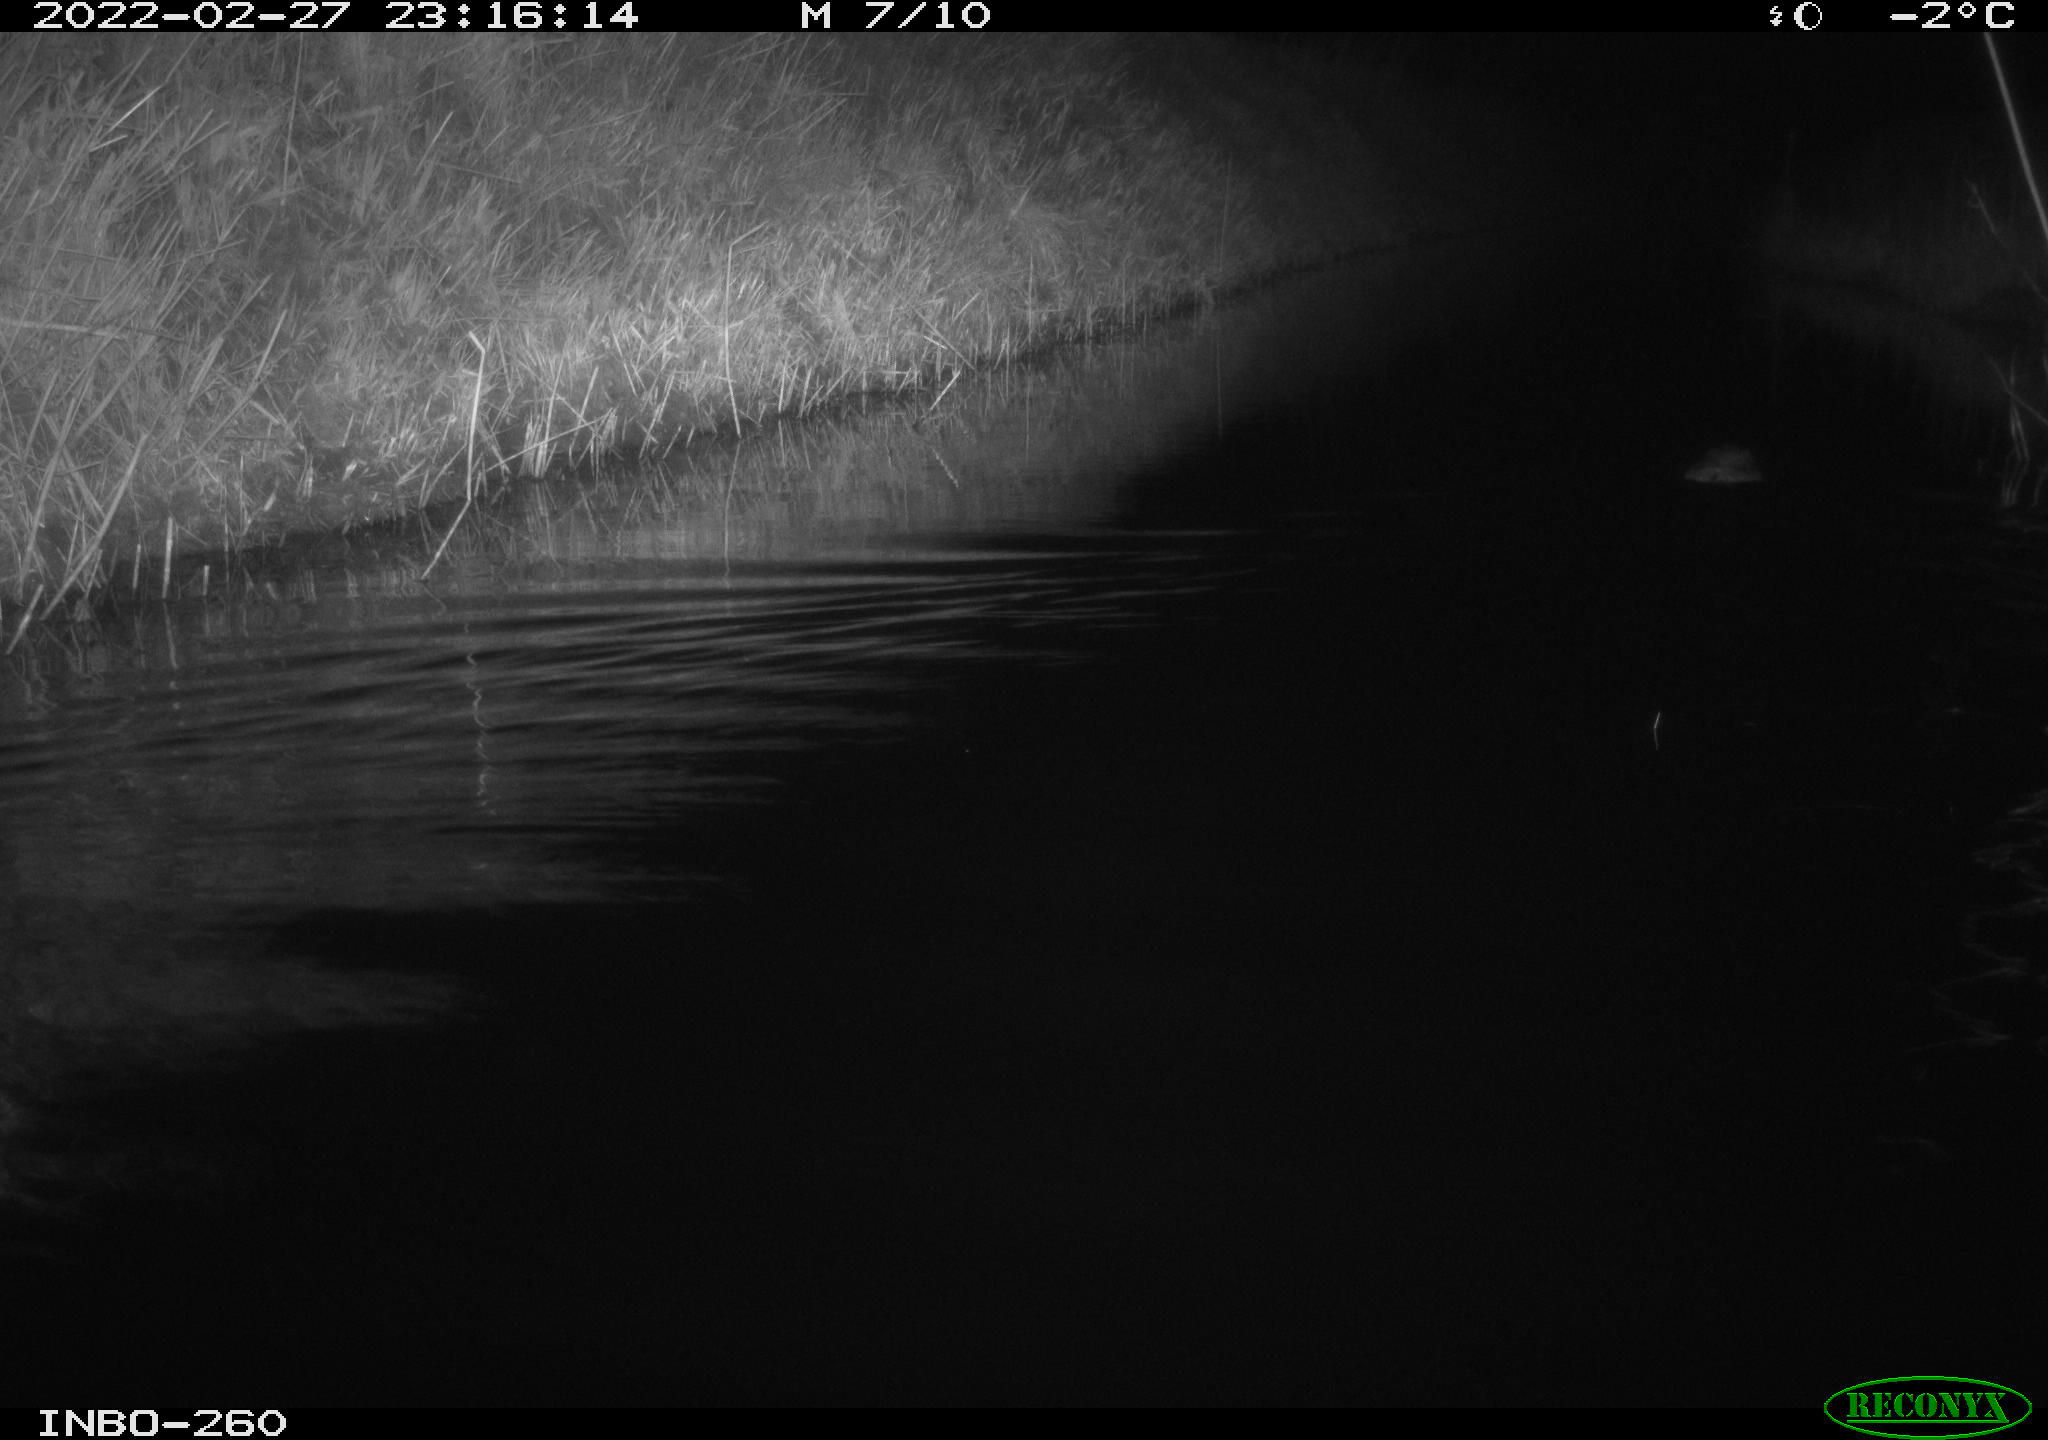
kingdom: Animalia
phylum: Chordata
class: Mammalia
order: Rodentia
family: Cricetidae
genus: Ondatra
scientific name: Ondatra zibethicus
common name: Muskrat
